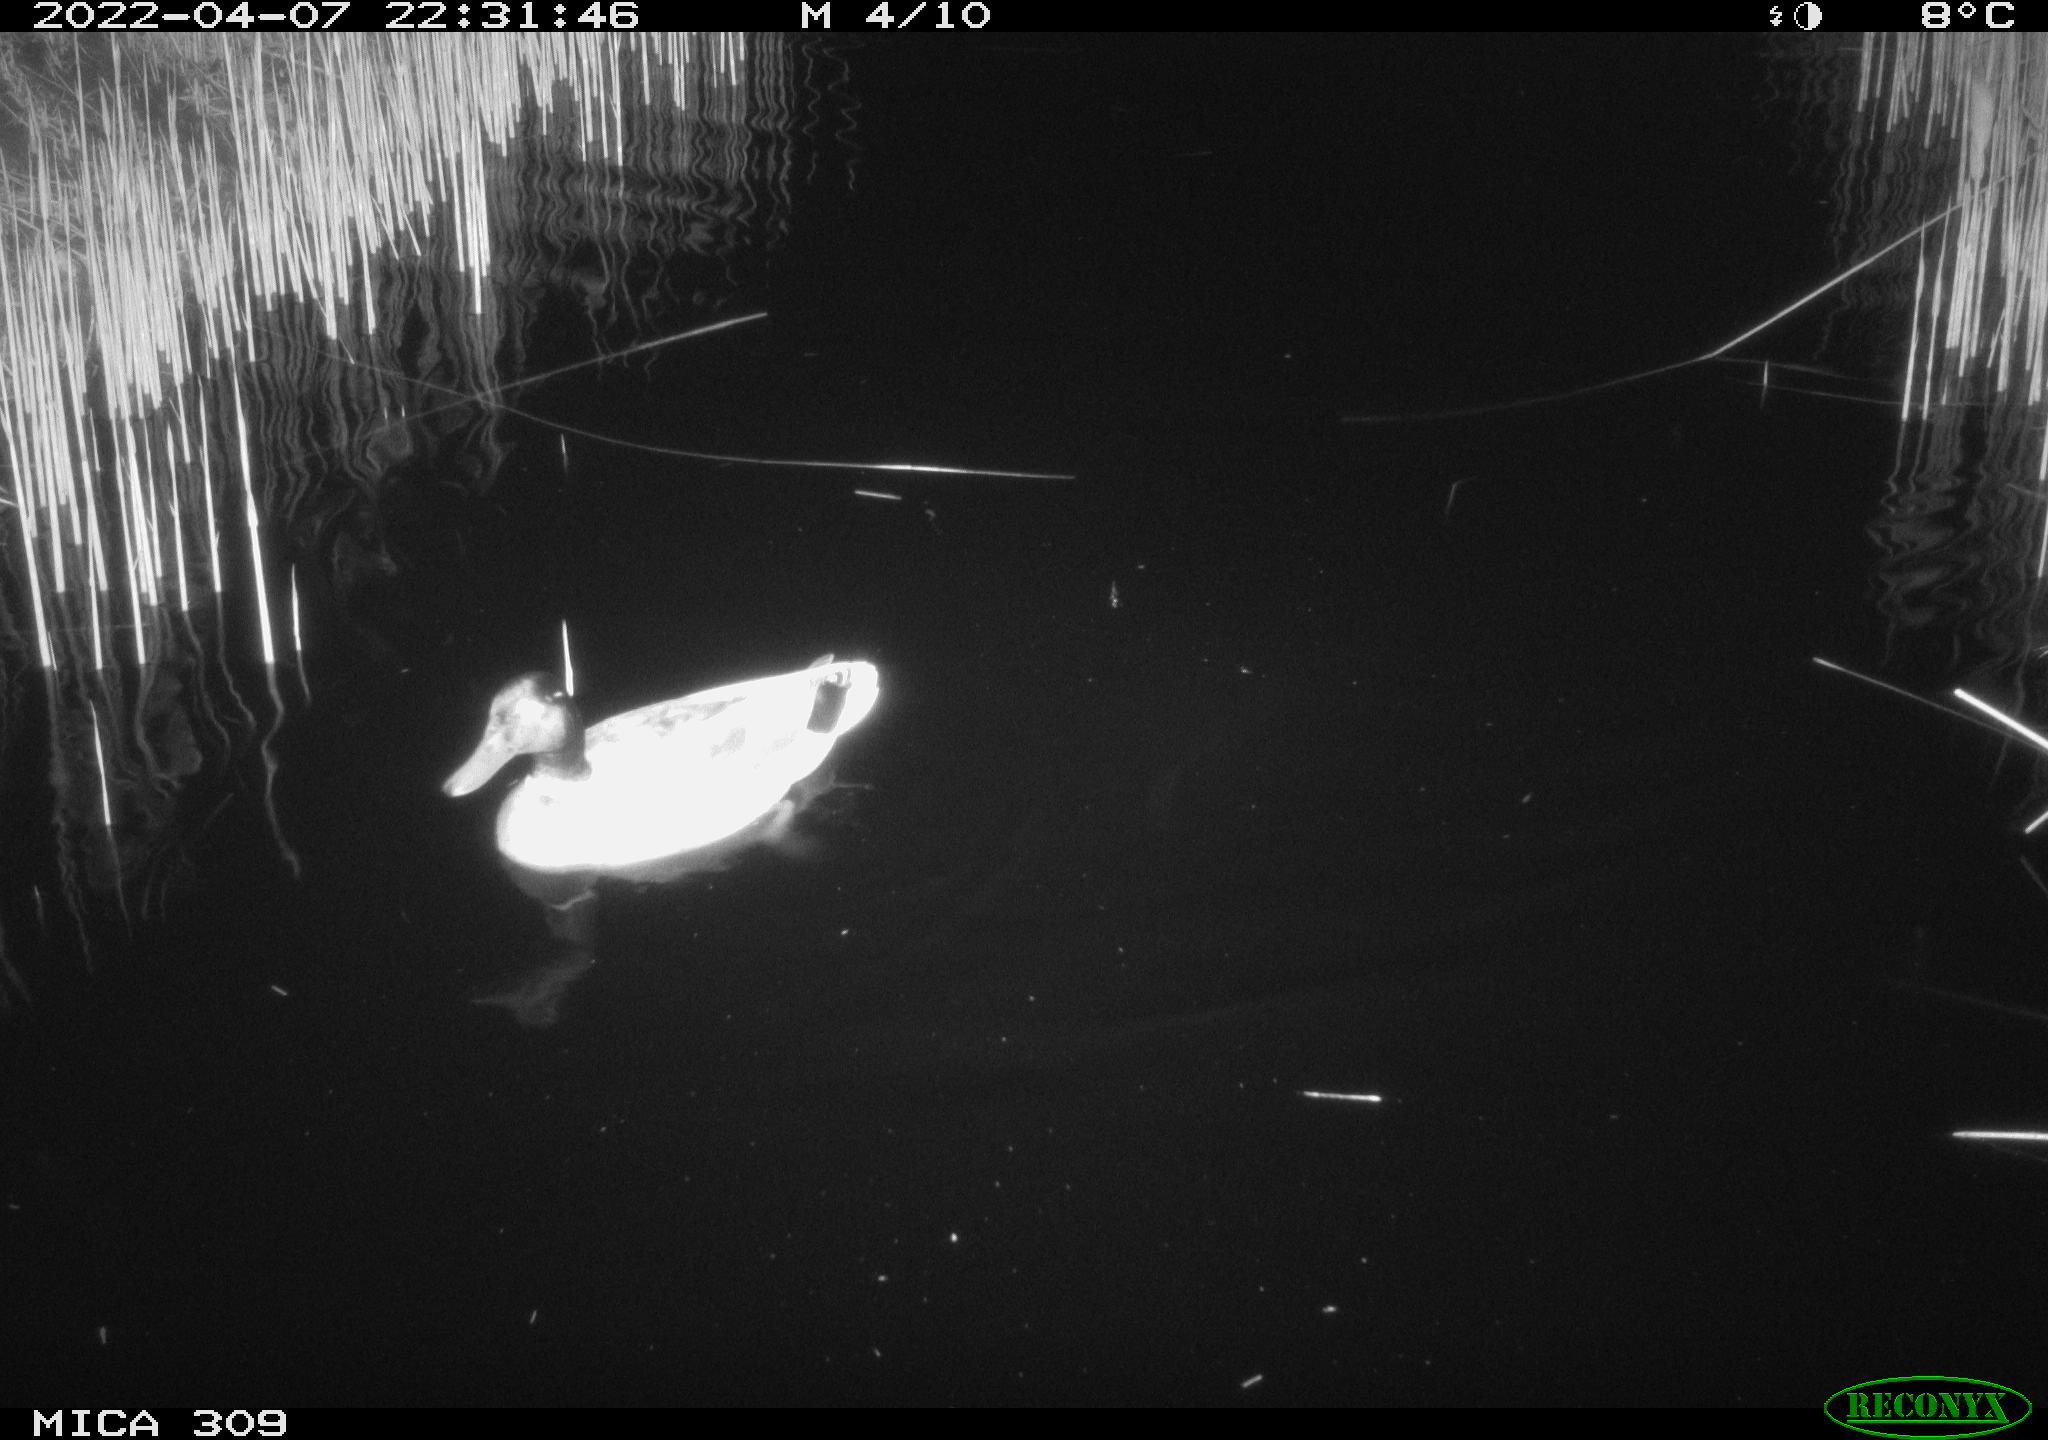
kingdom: Animalia
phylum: Chordata
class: Aves
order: Anseriformes
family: Anatidae
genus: Anas
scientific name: Anas platyrhynchos
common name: Mallard
